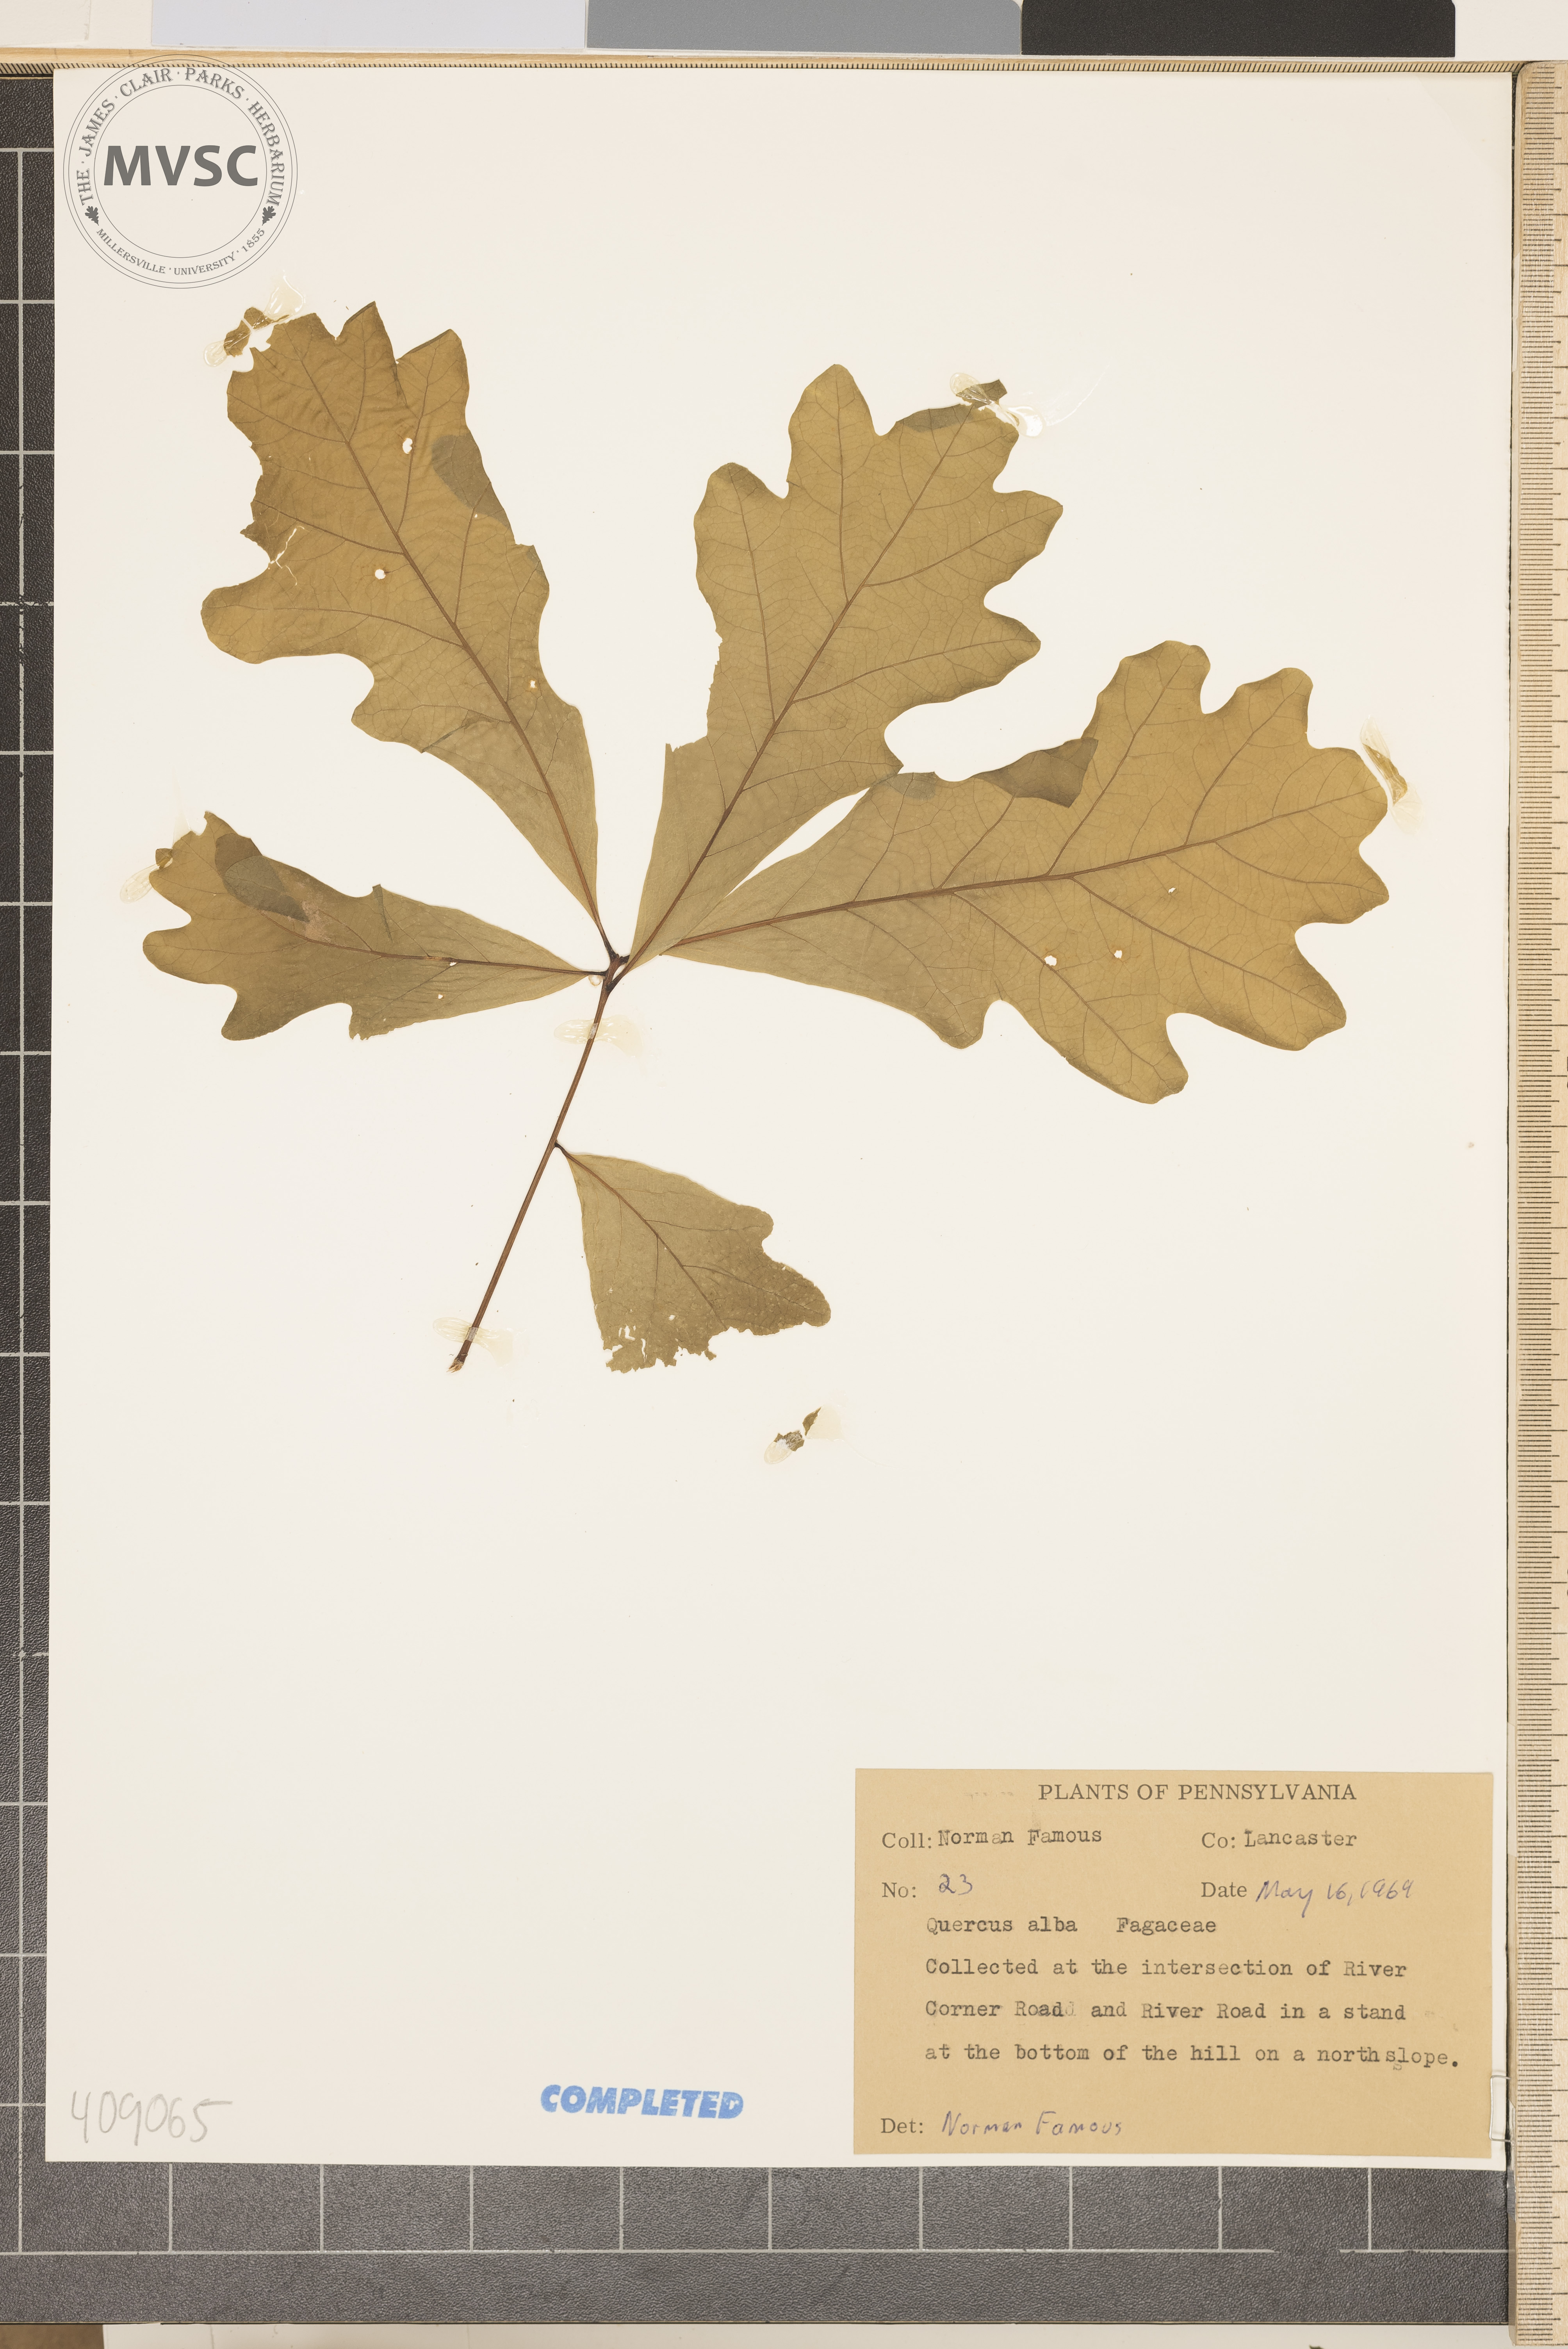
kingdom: Plantae
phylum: Tracheophyta
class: Magnoliopsida
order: Fagales
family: Fagaceae
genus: Quercus
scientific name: Quercus alba
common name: White oak
